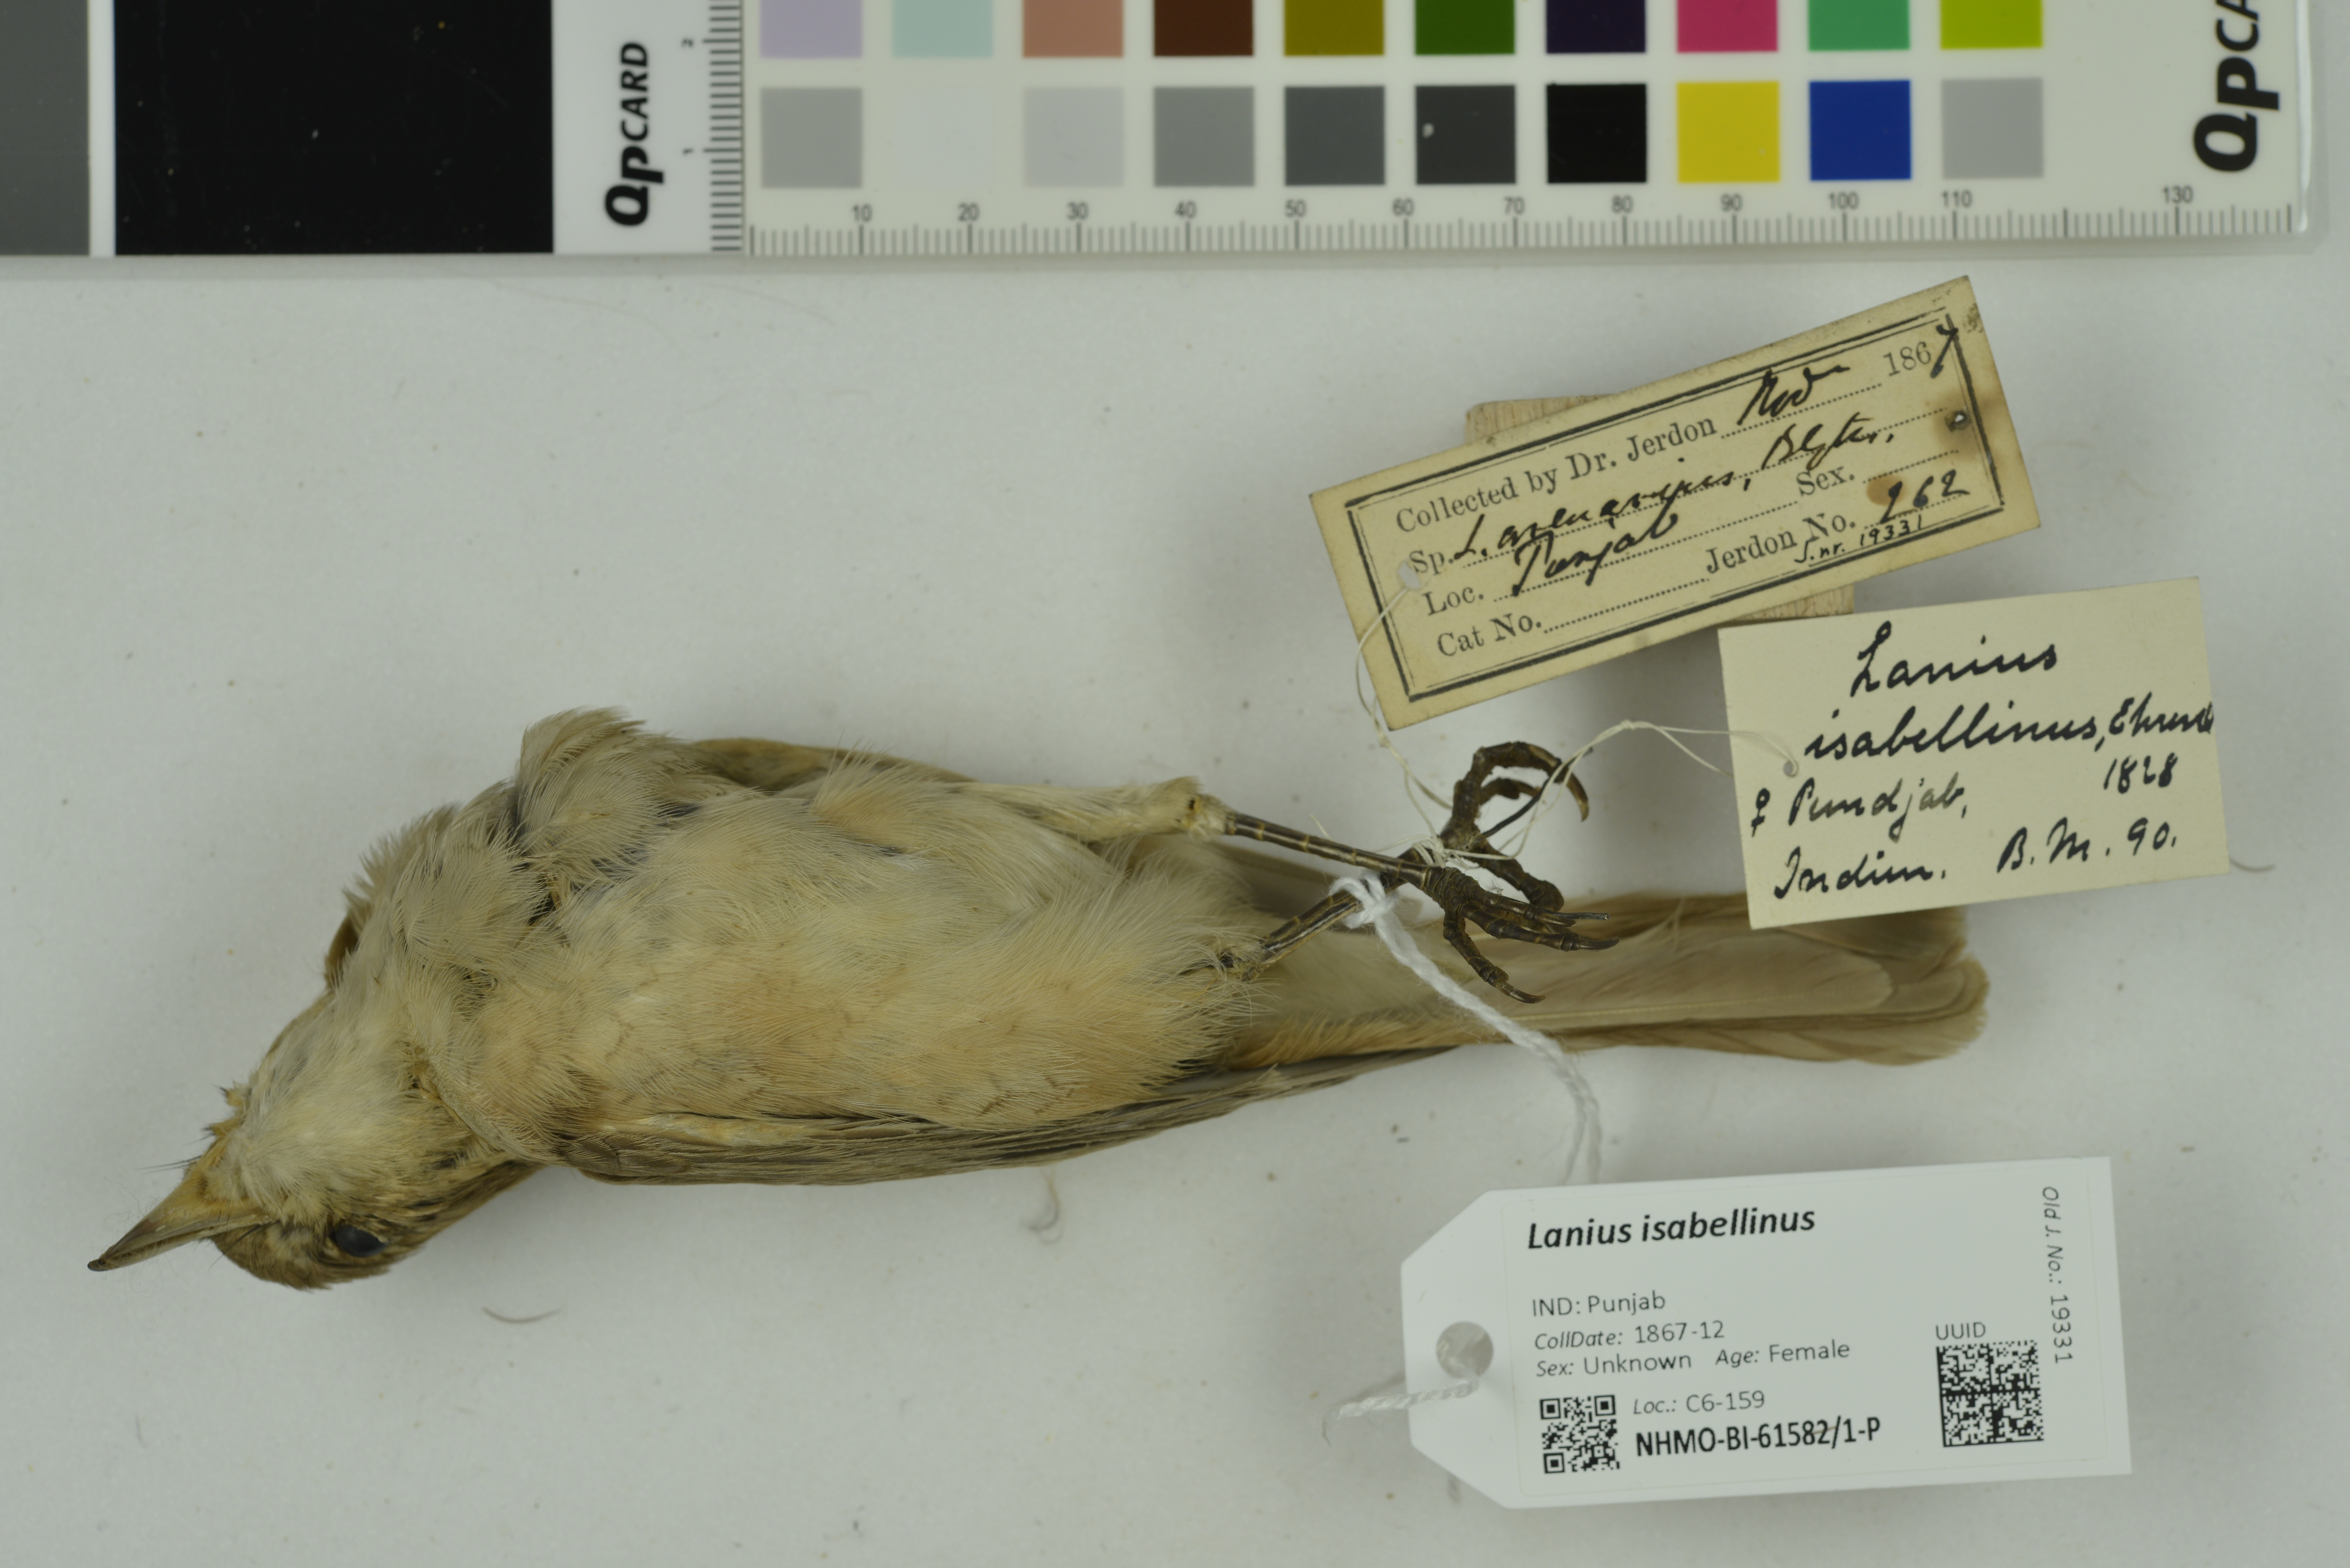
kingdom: Animalia
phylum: Chordata
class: Aves
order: Passeriformes
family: Laniidae
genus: Lanius
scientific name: Lanius isabellinus
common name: Isabelline shrike
